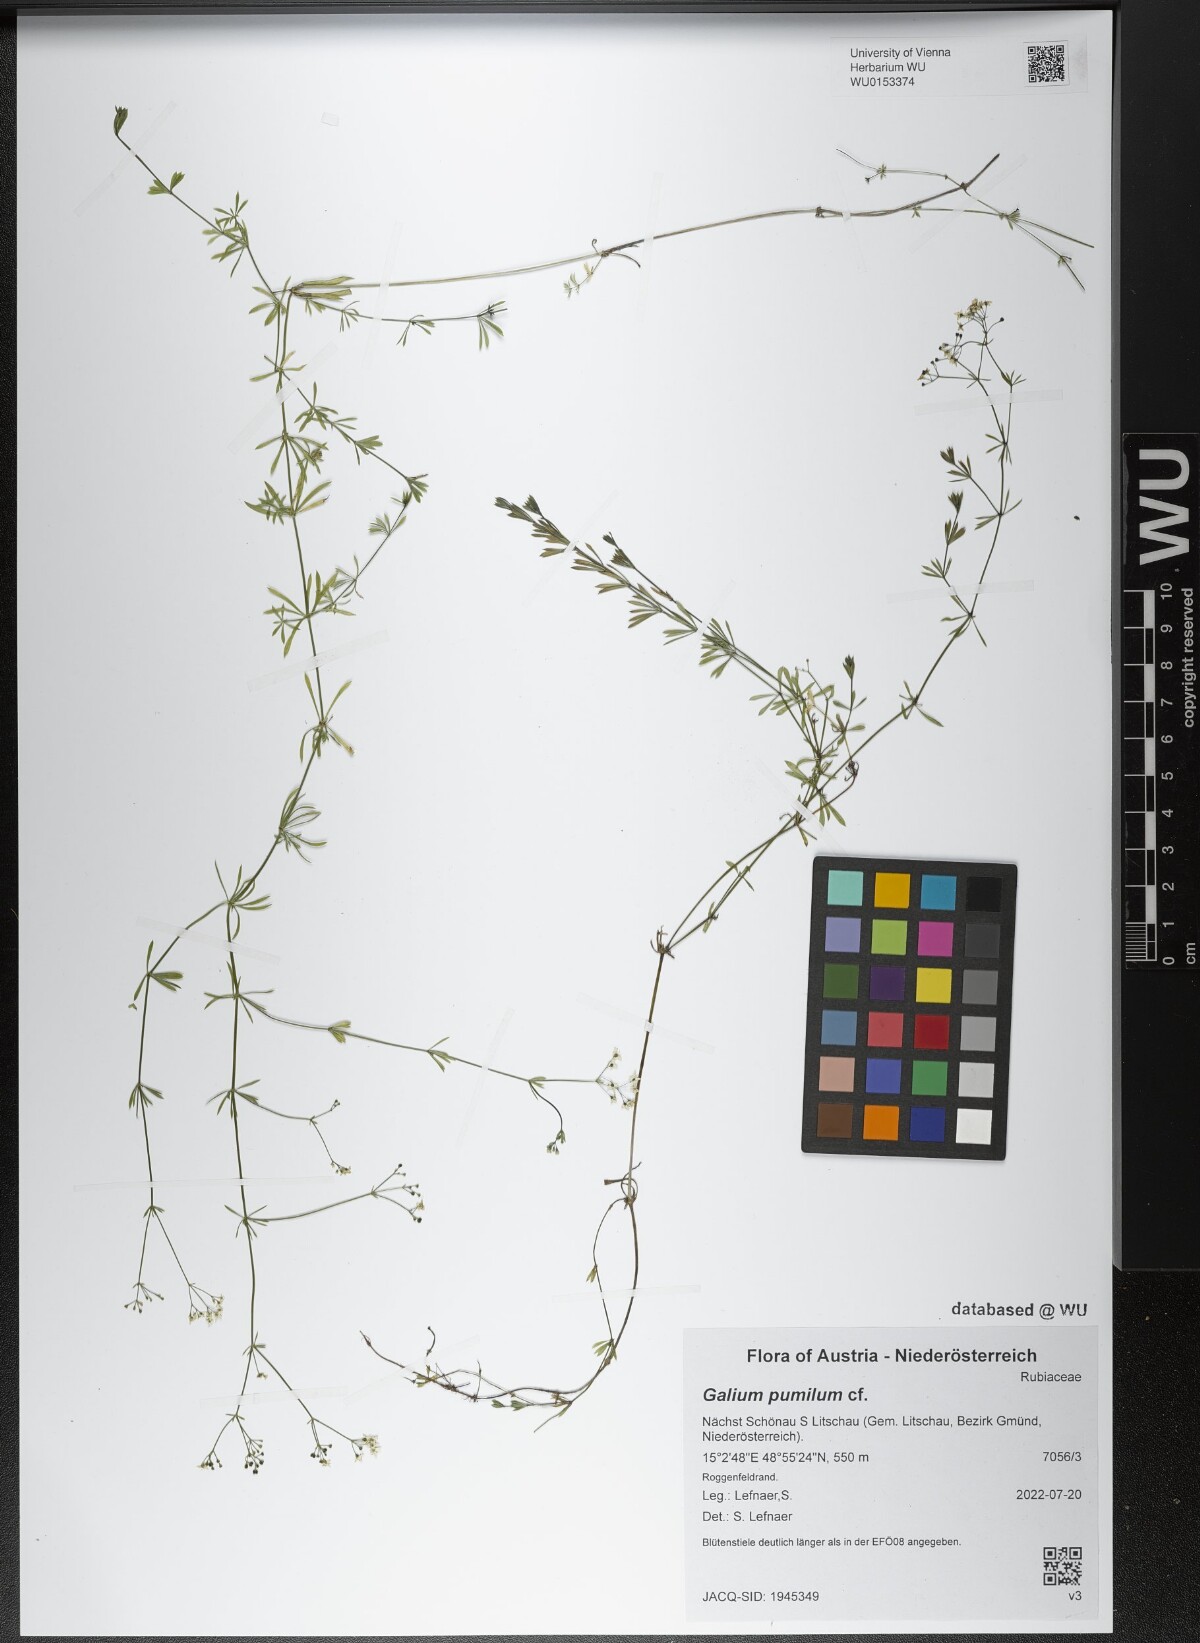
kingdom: Plantae
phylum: Tracheophyta
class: Magnoliopsida
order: Gentianales
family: Rubiaceae
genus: Galium
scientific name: Galium pumilum
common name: Slender bedstraw
